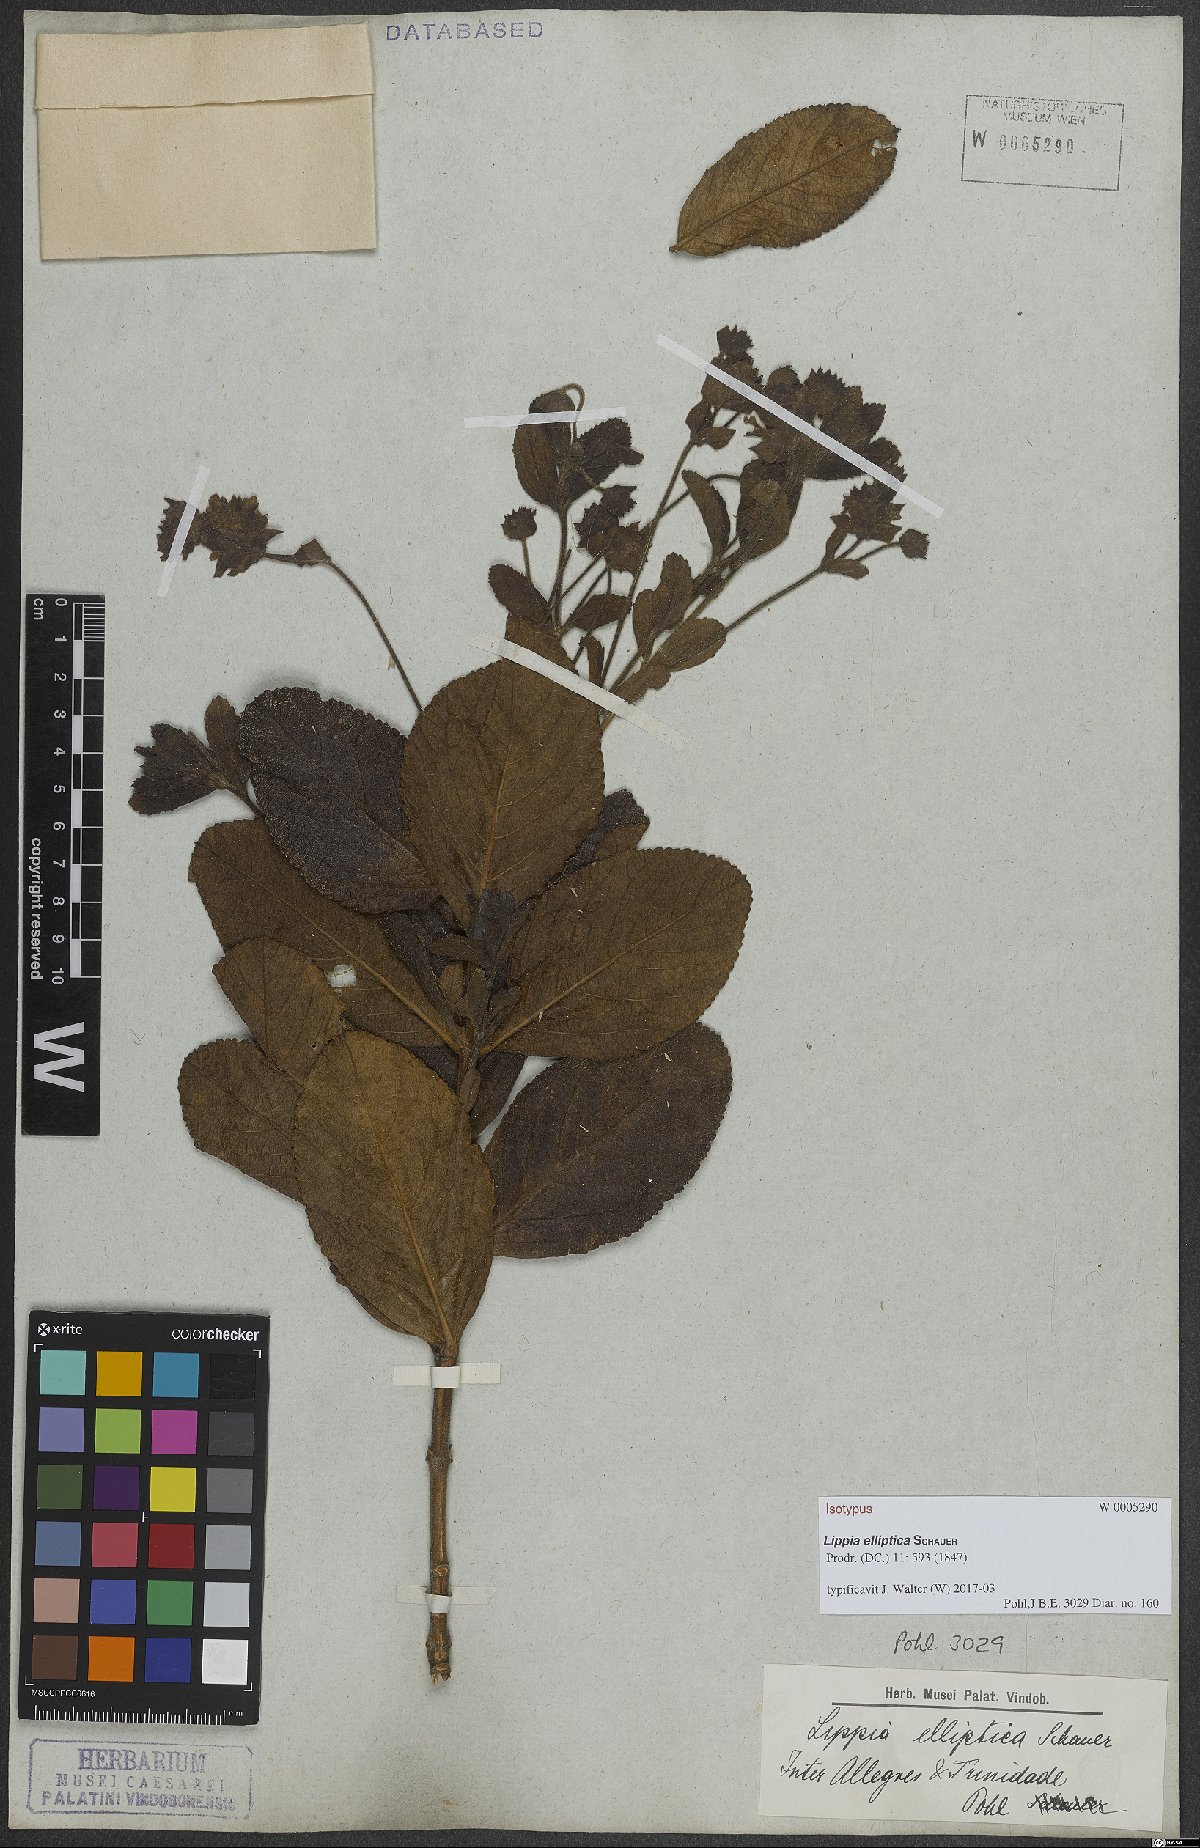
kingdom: Plantae
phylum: Tracheophyta
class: Magnoliopsida
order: Lamiales
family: Verbenaceae
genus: Lippia
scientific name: Lippia elliptica
